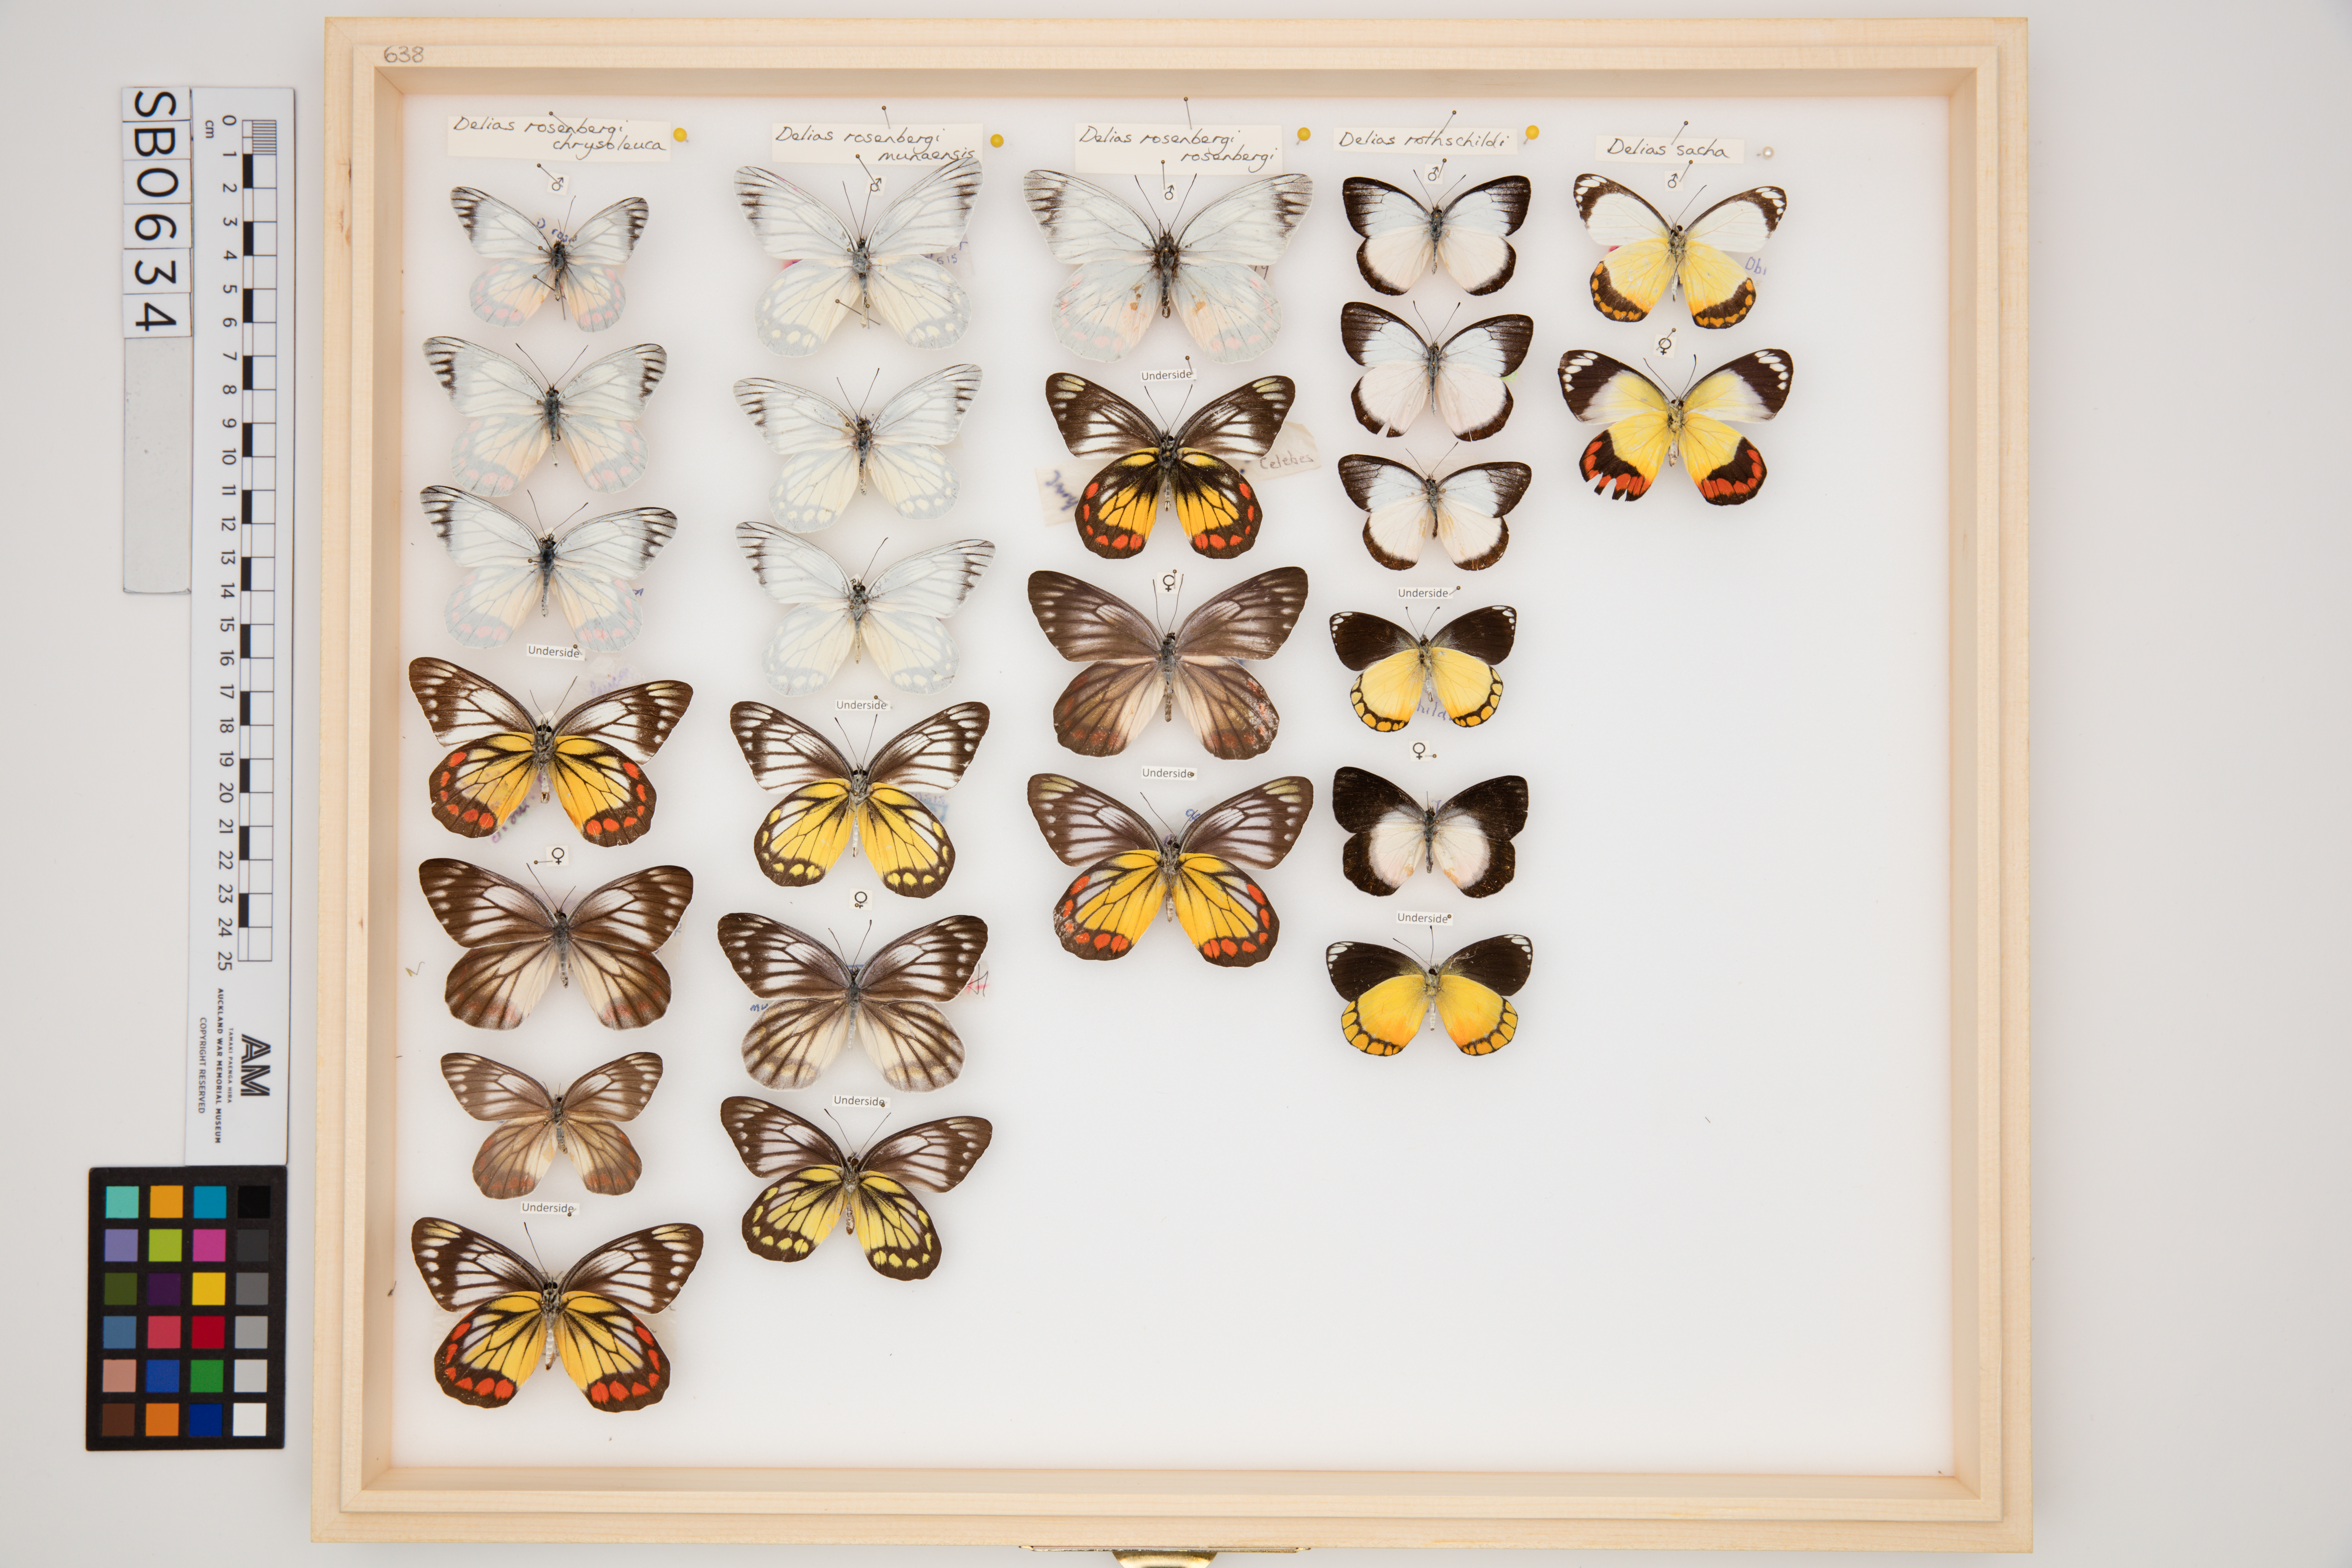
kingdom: Animalia
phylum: Arthropoda
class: Insecta
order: Lepidoptera
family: Pieridae
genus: Delias
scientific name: Delias rosenbergi
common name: Rosenberg’s painted jezebel
